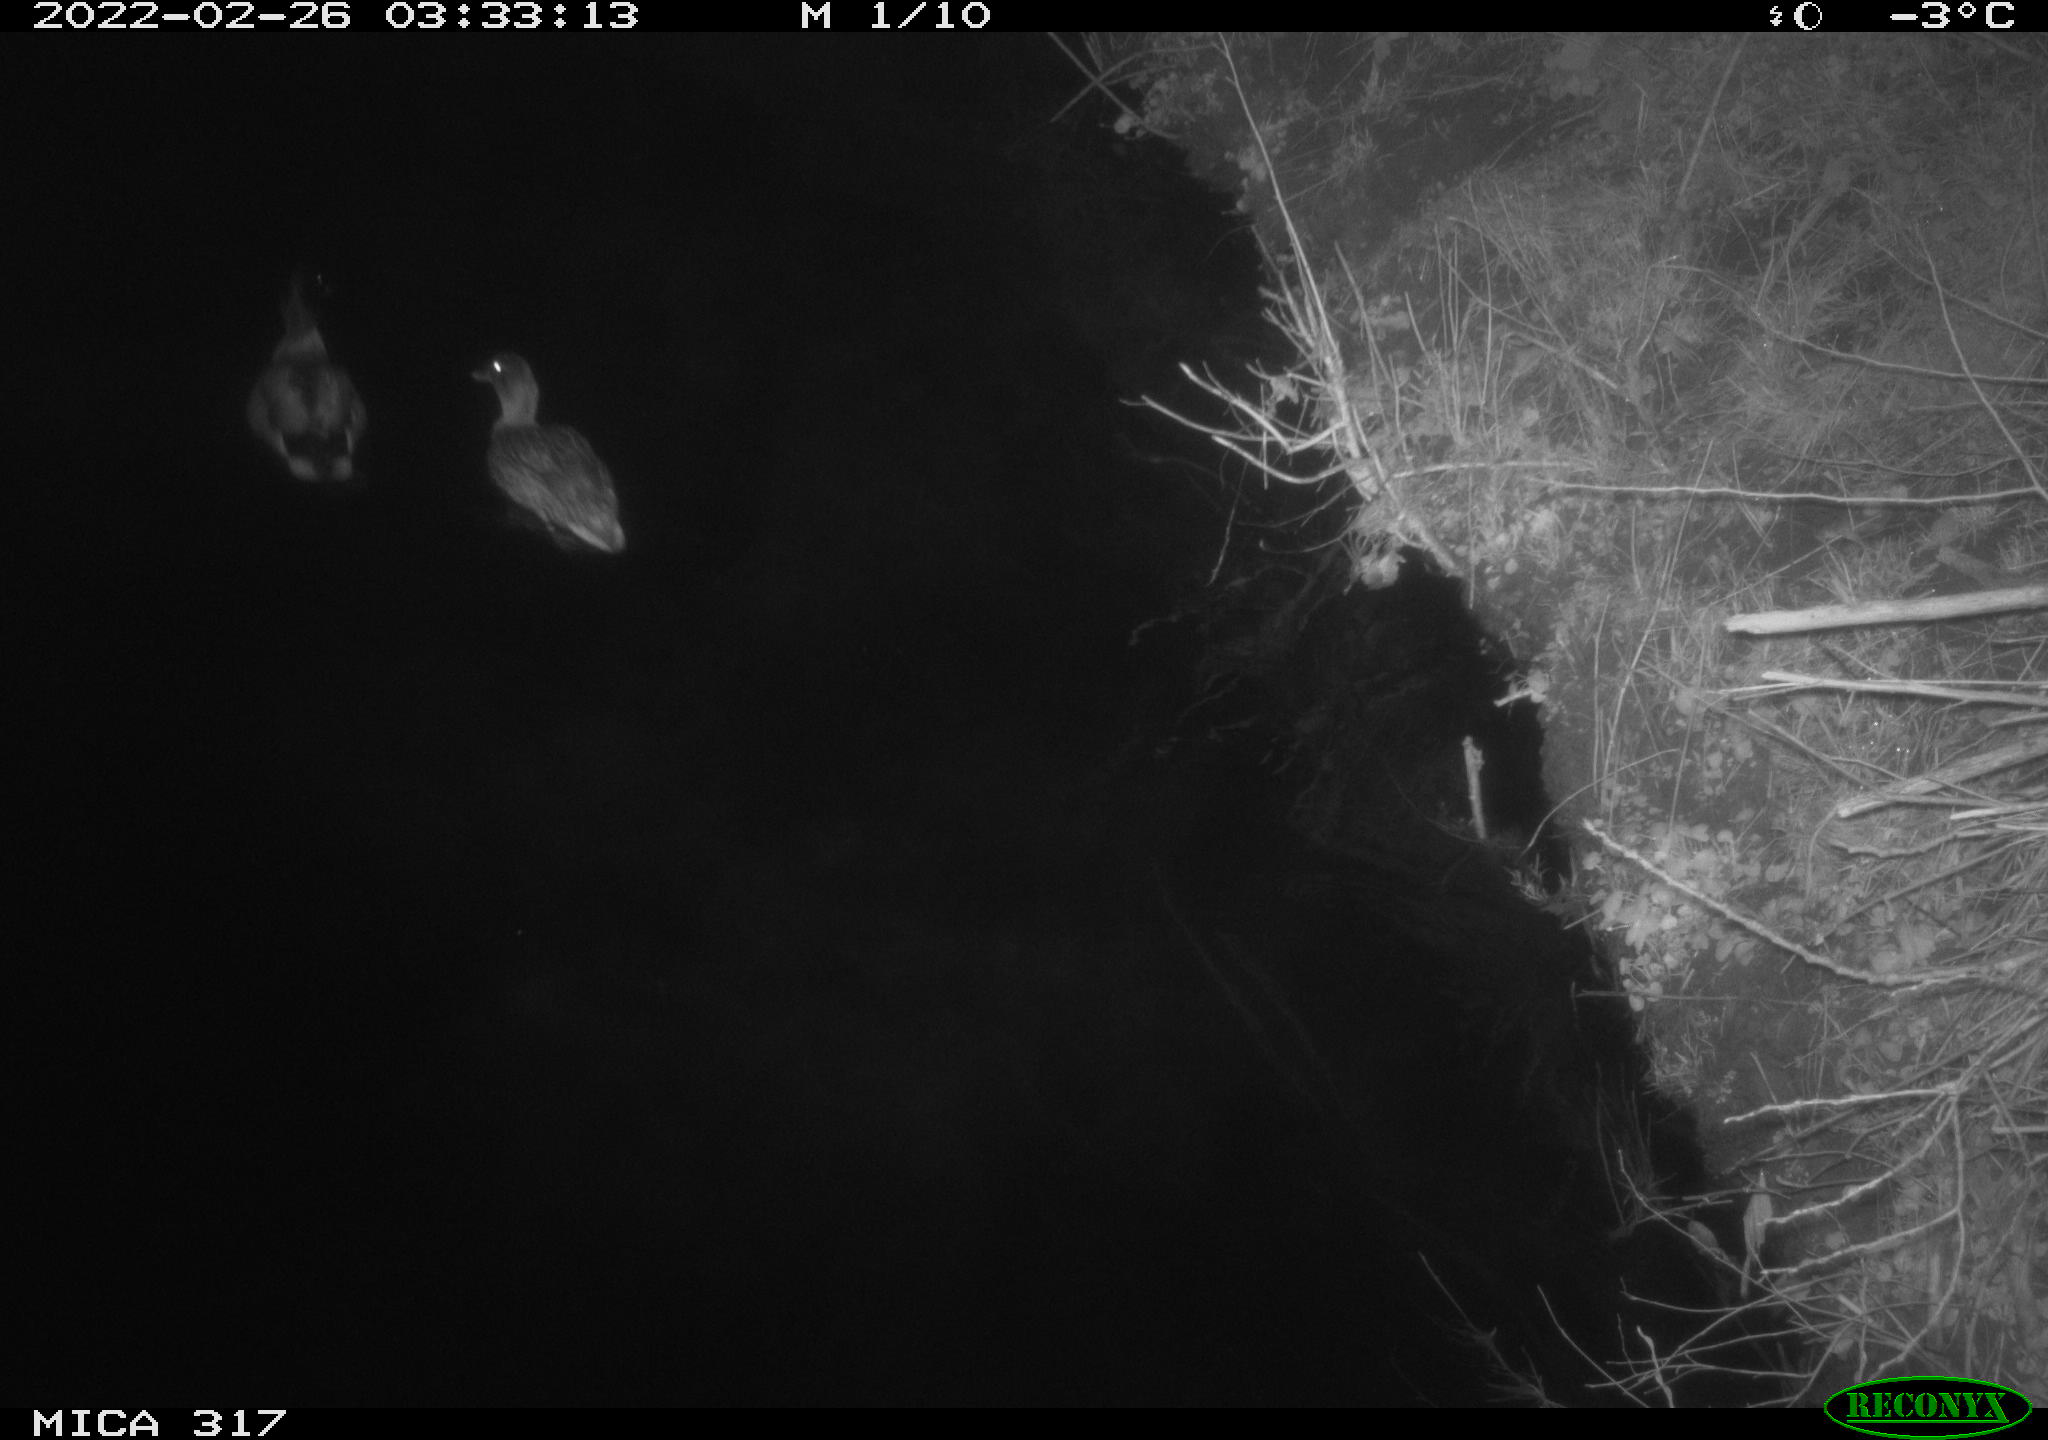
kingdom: Animalia
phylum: Chordata
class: Aves
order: Anseriformes
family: Anatidae
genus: Anas
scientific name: Anas platyrhynchos
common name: Mallard
